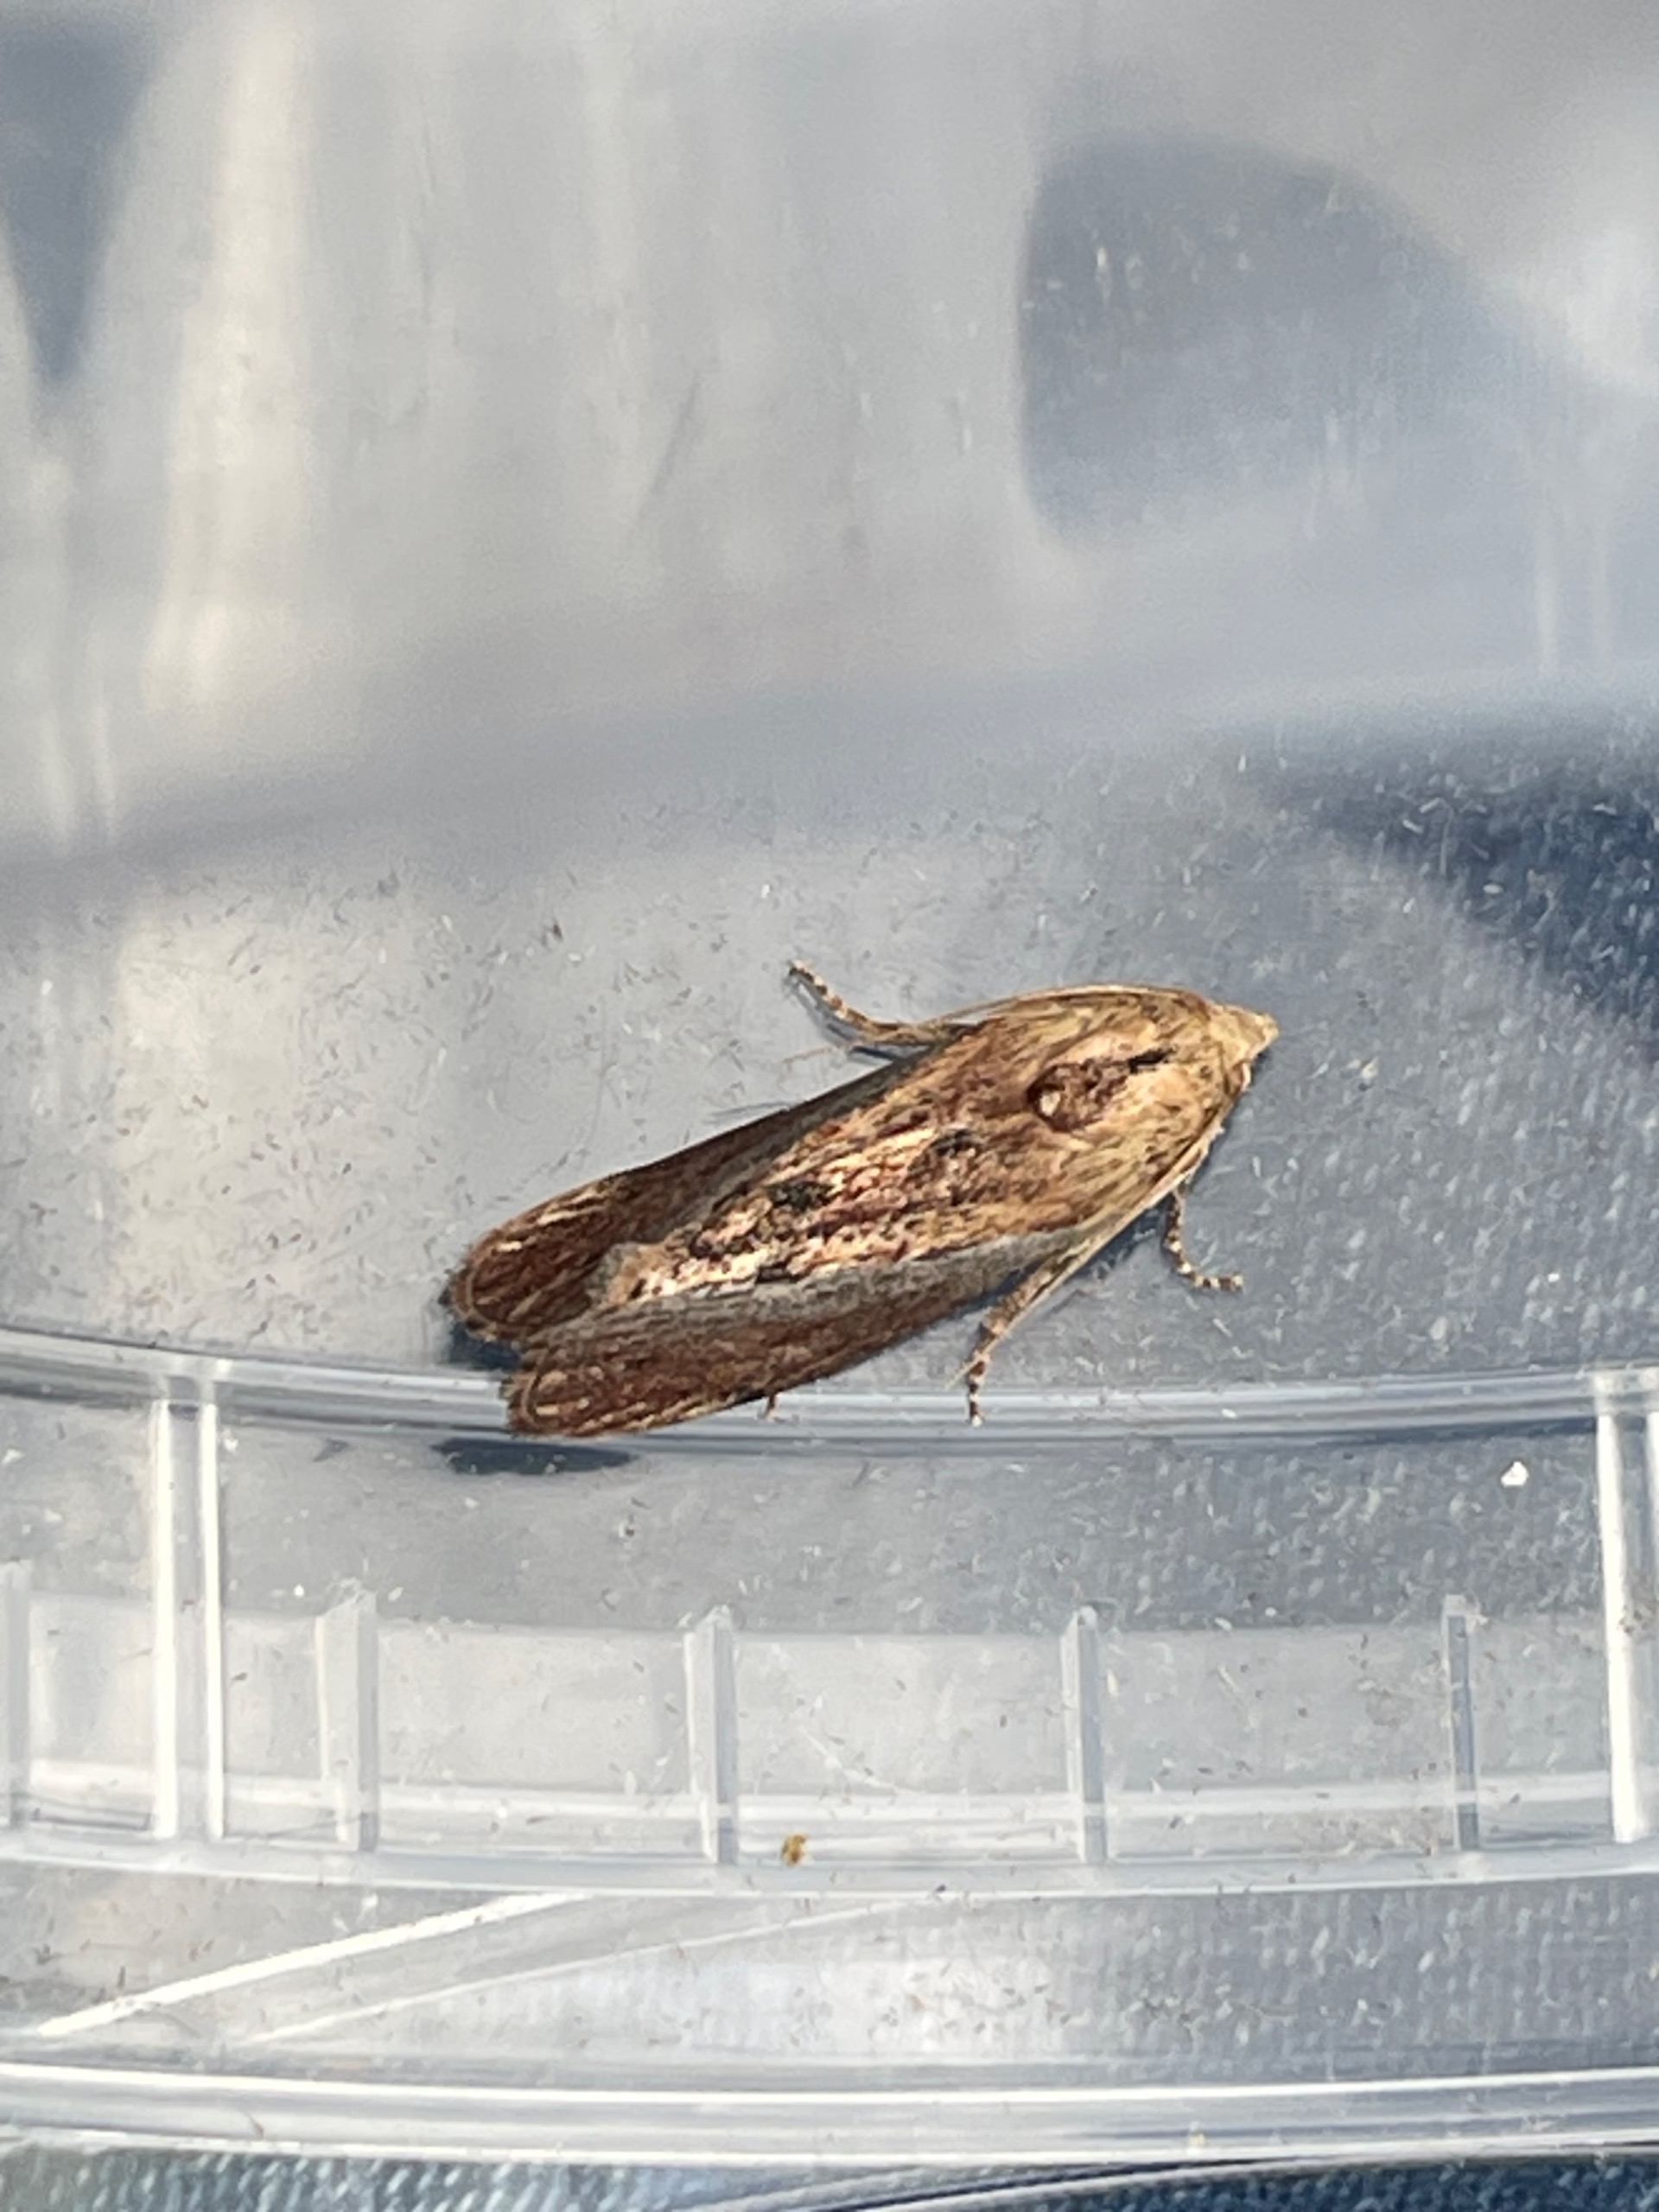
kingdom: Animalia
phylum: Arthropoda
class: Insecta
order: Lepidoptera
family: Pyralidae
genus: Galleria
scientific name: Galleria mellonella
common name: Stort voksmøl
